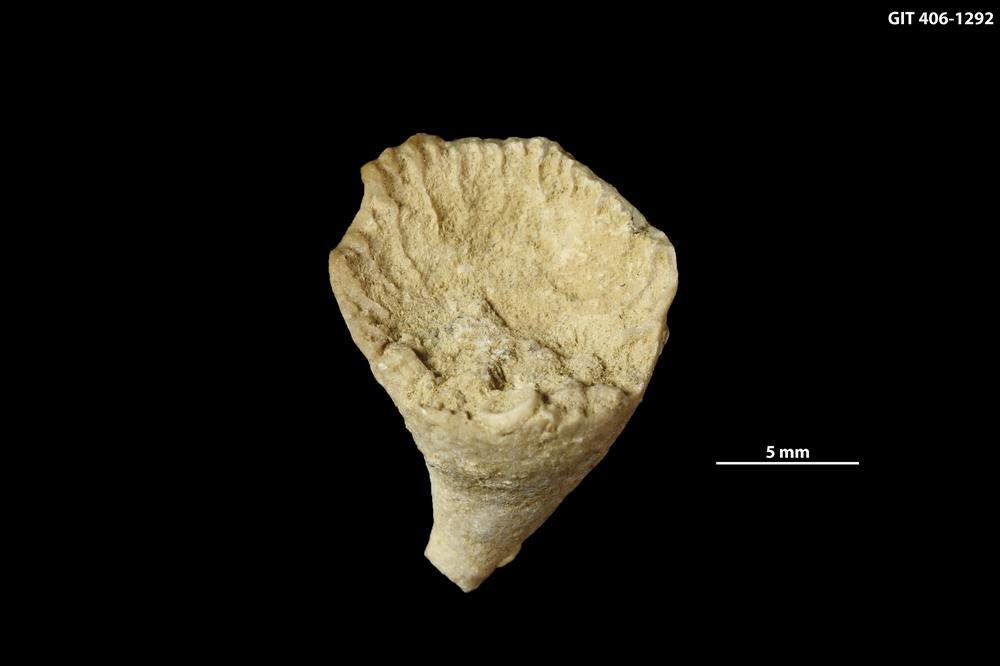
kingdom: Animalia
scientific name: Animalia
